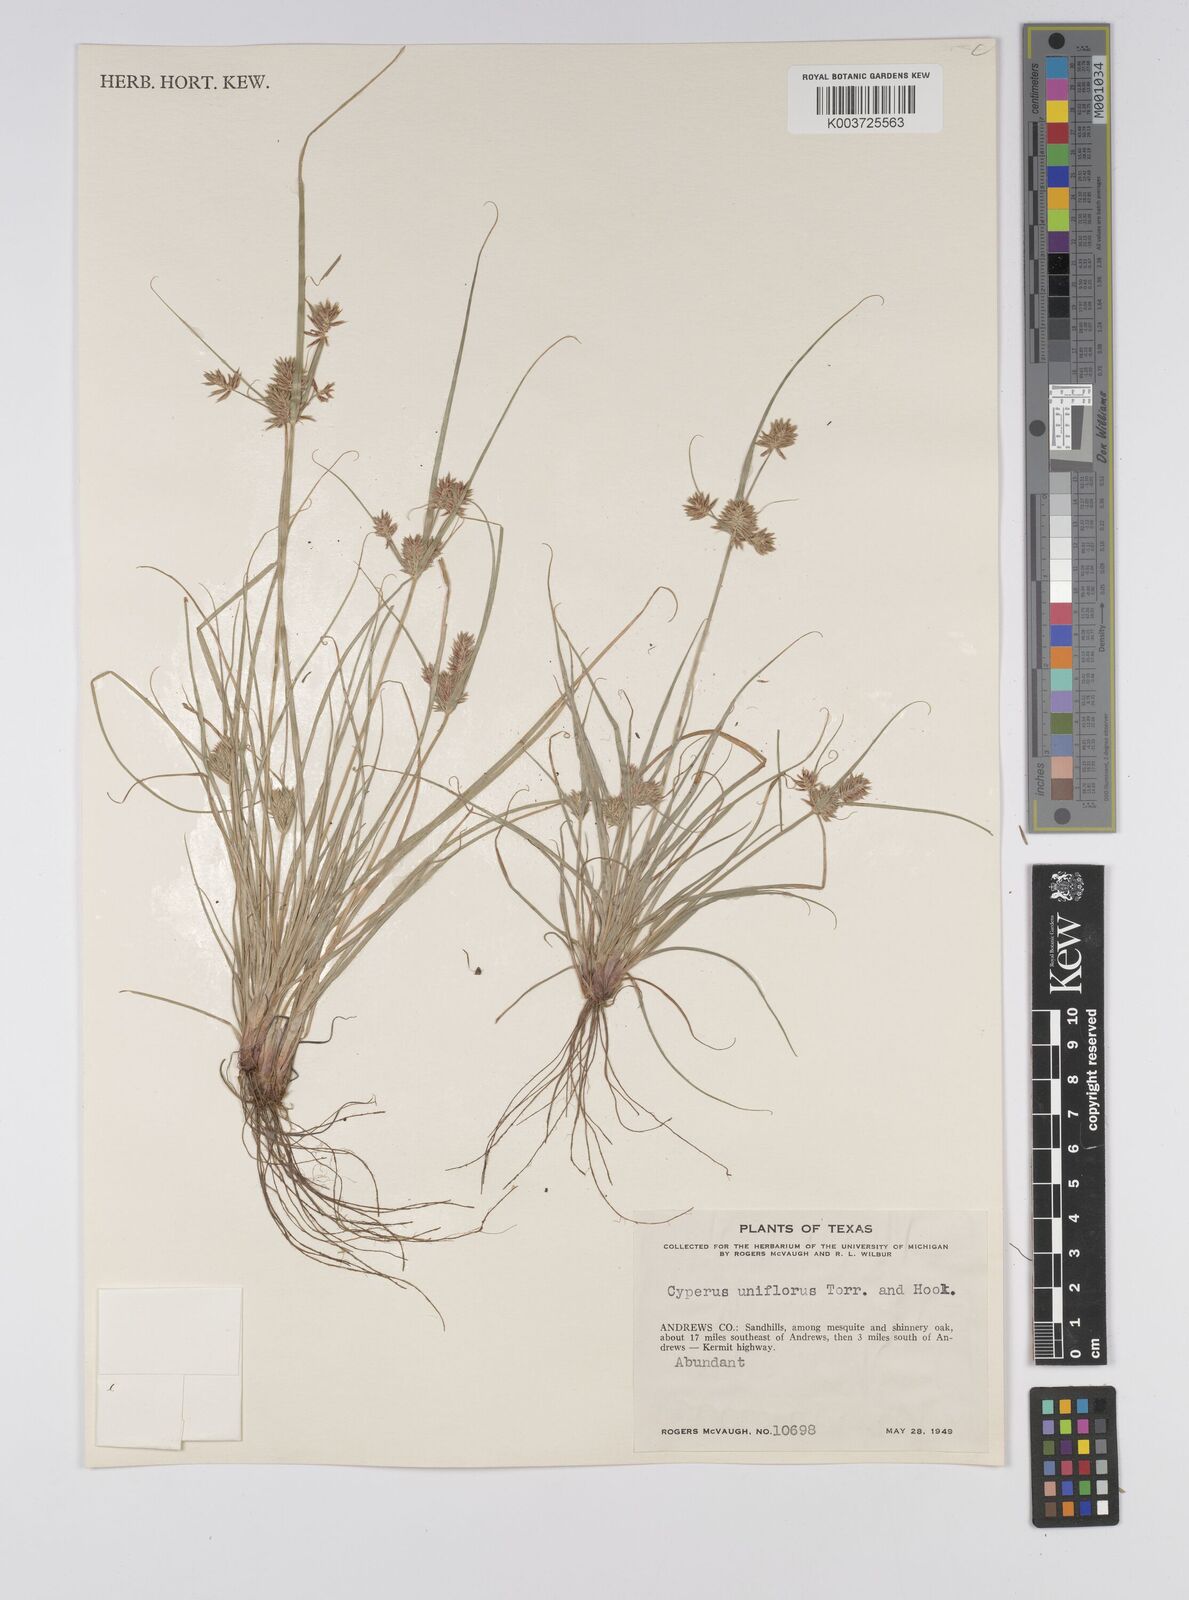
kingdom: Plantae
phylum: Tracheophyta
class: Liliopsida
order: Poales
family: Cyperaceae
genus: Cyperus
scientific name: Cyperus retroflexus
